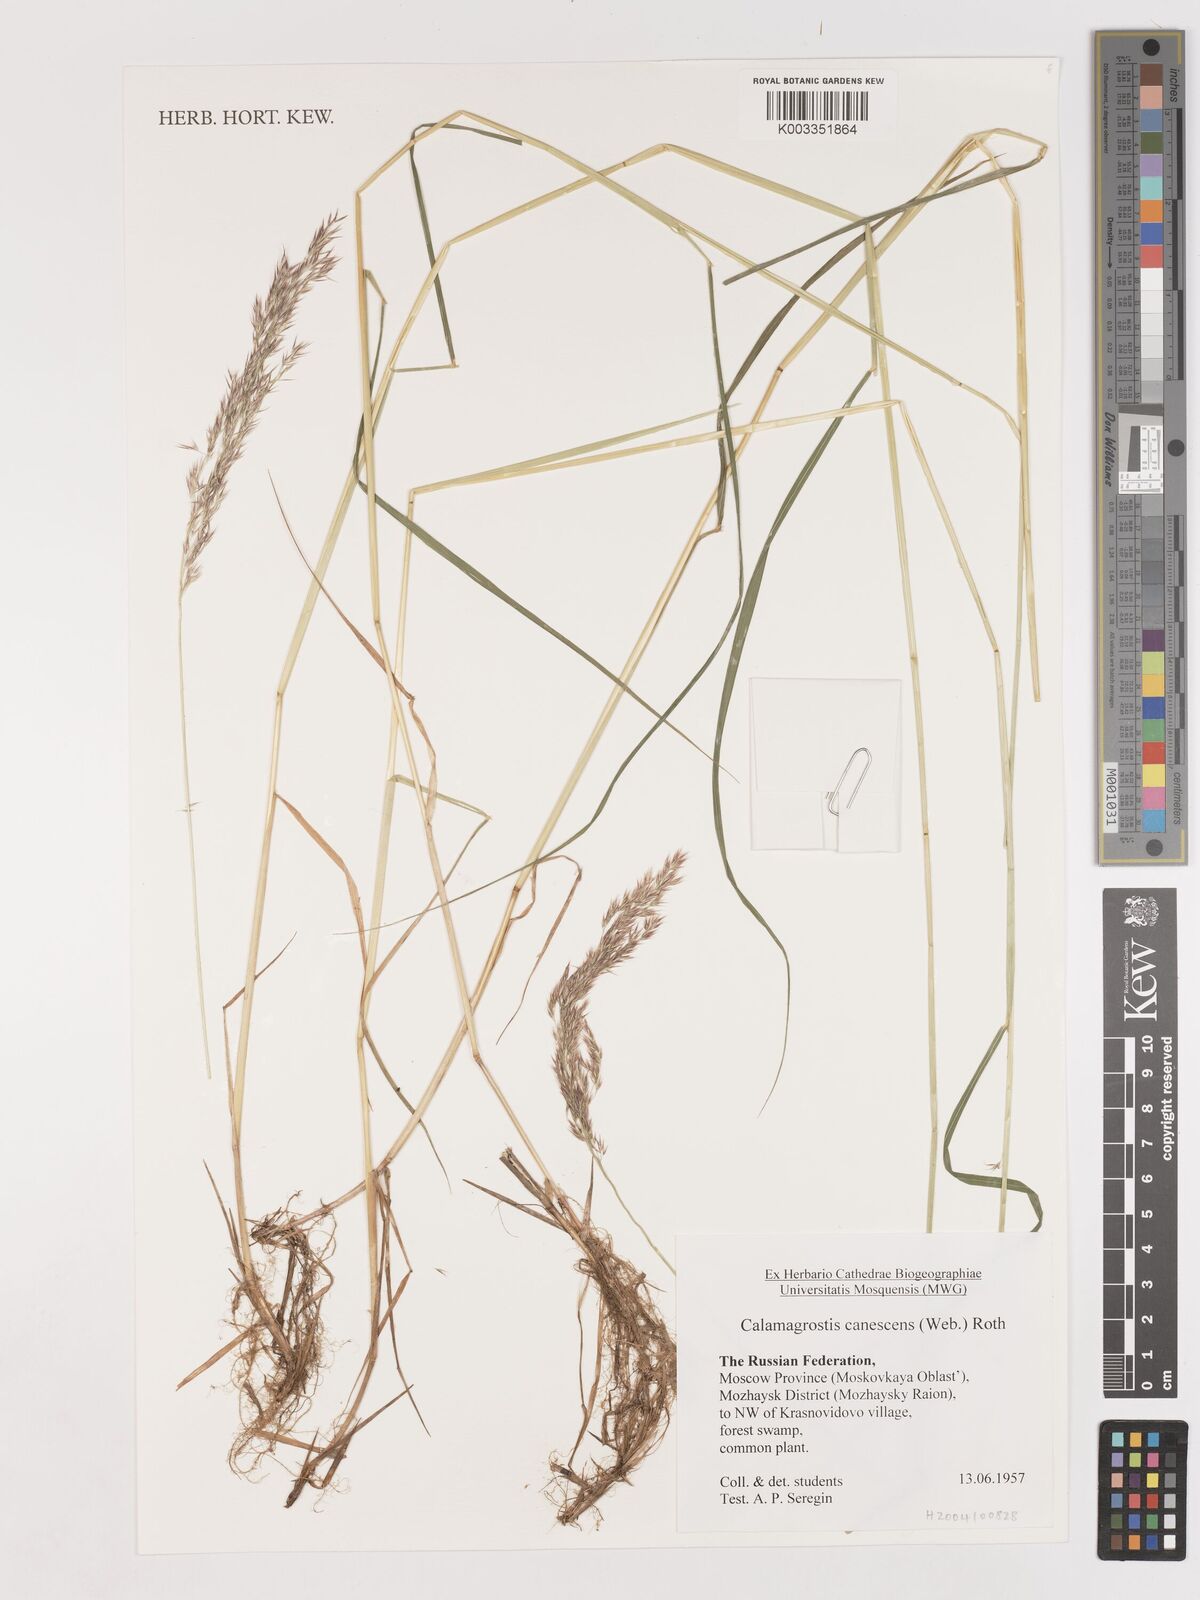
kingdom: Plantae
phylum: Tracheophyta
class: Liliopsida
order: Poales
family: Poaceae
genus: Calamagrostis
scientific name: Calamagrostis canescens
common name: Purple small-reed
